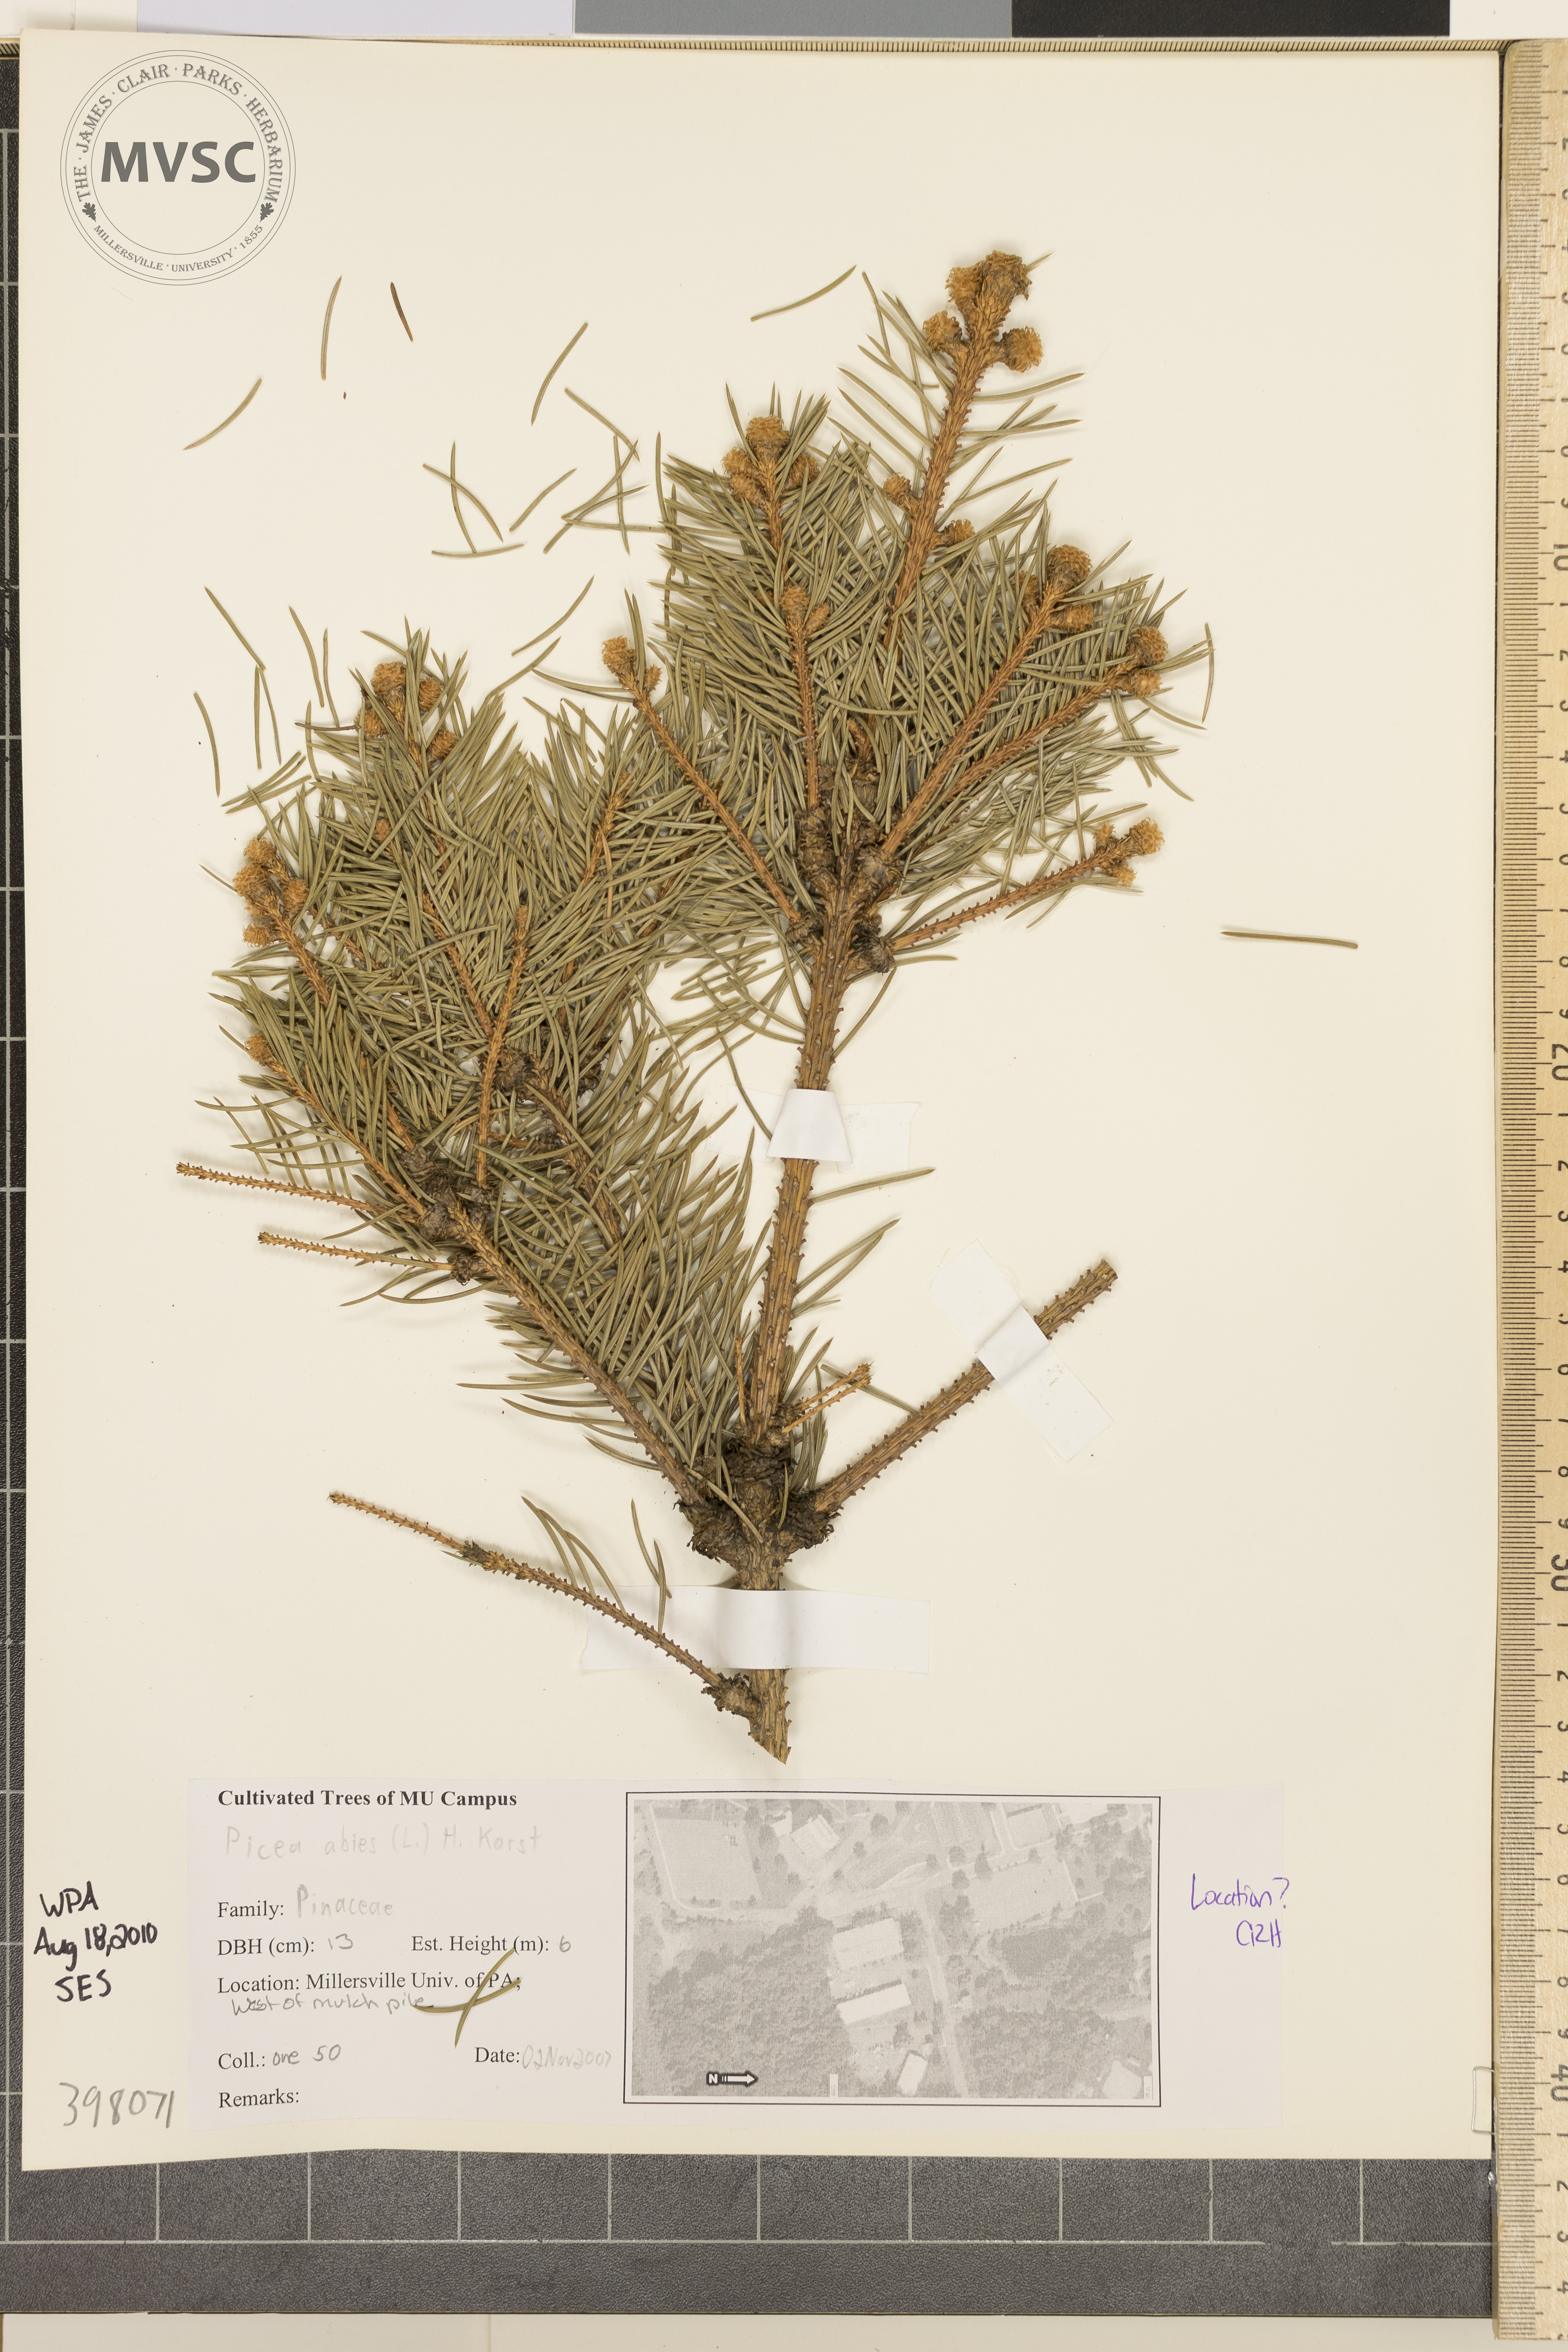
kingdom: Plantae
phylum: Tracheophyta
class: Pinopsida
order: Pinales
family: Pinaceae
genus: Picea
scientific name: Picea abies
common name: Norway spruce
